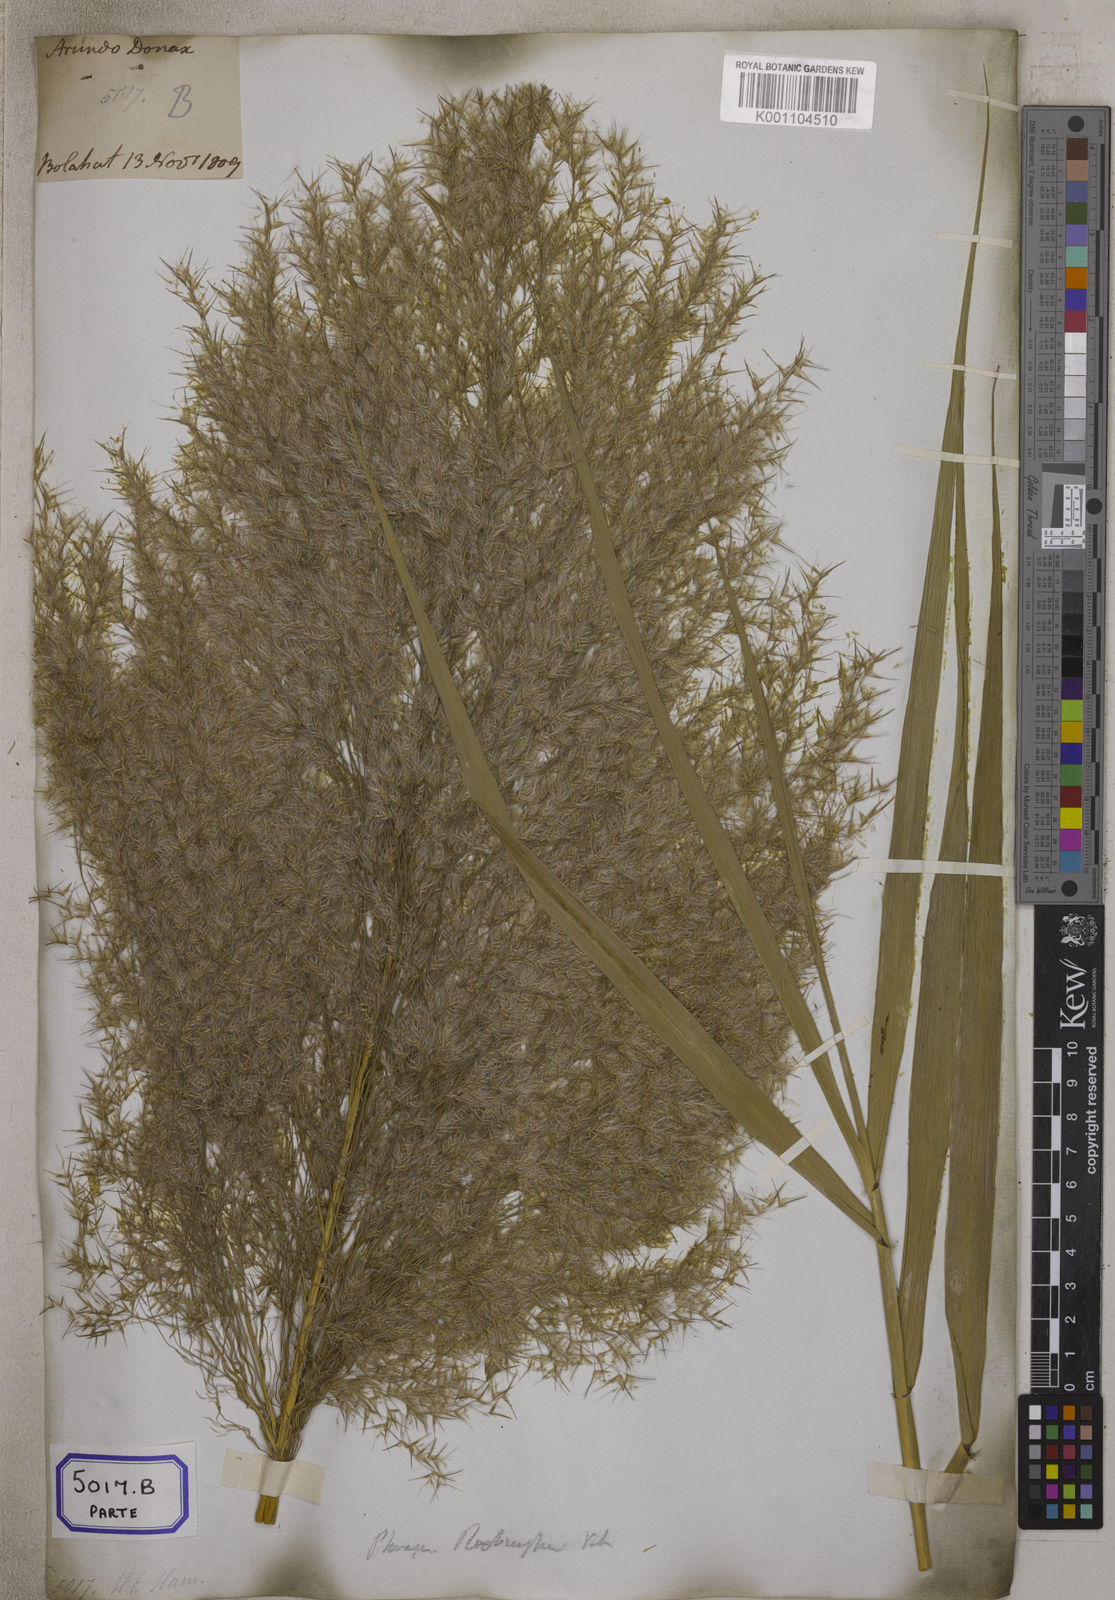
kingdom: Plantae
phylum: Tracheophyta
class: Liliopsida
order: Poales
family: Poaceae
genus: Arundo
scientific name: Arundo
